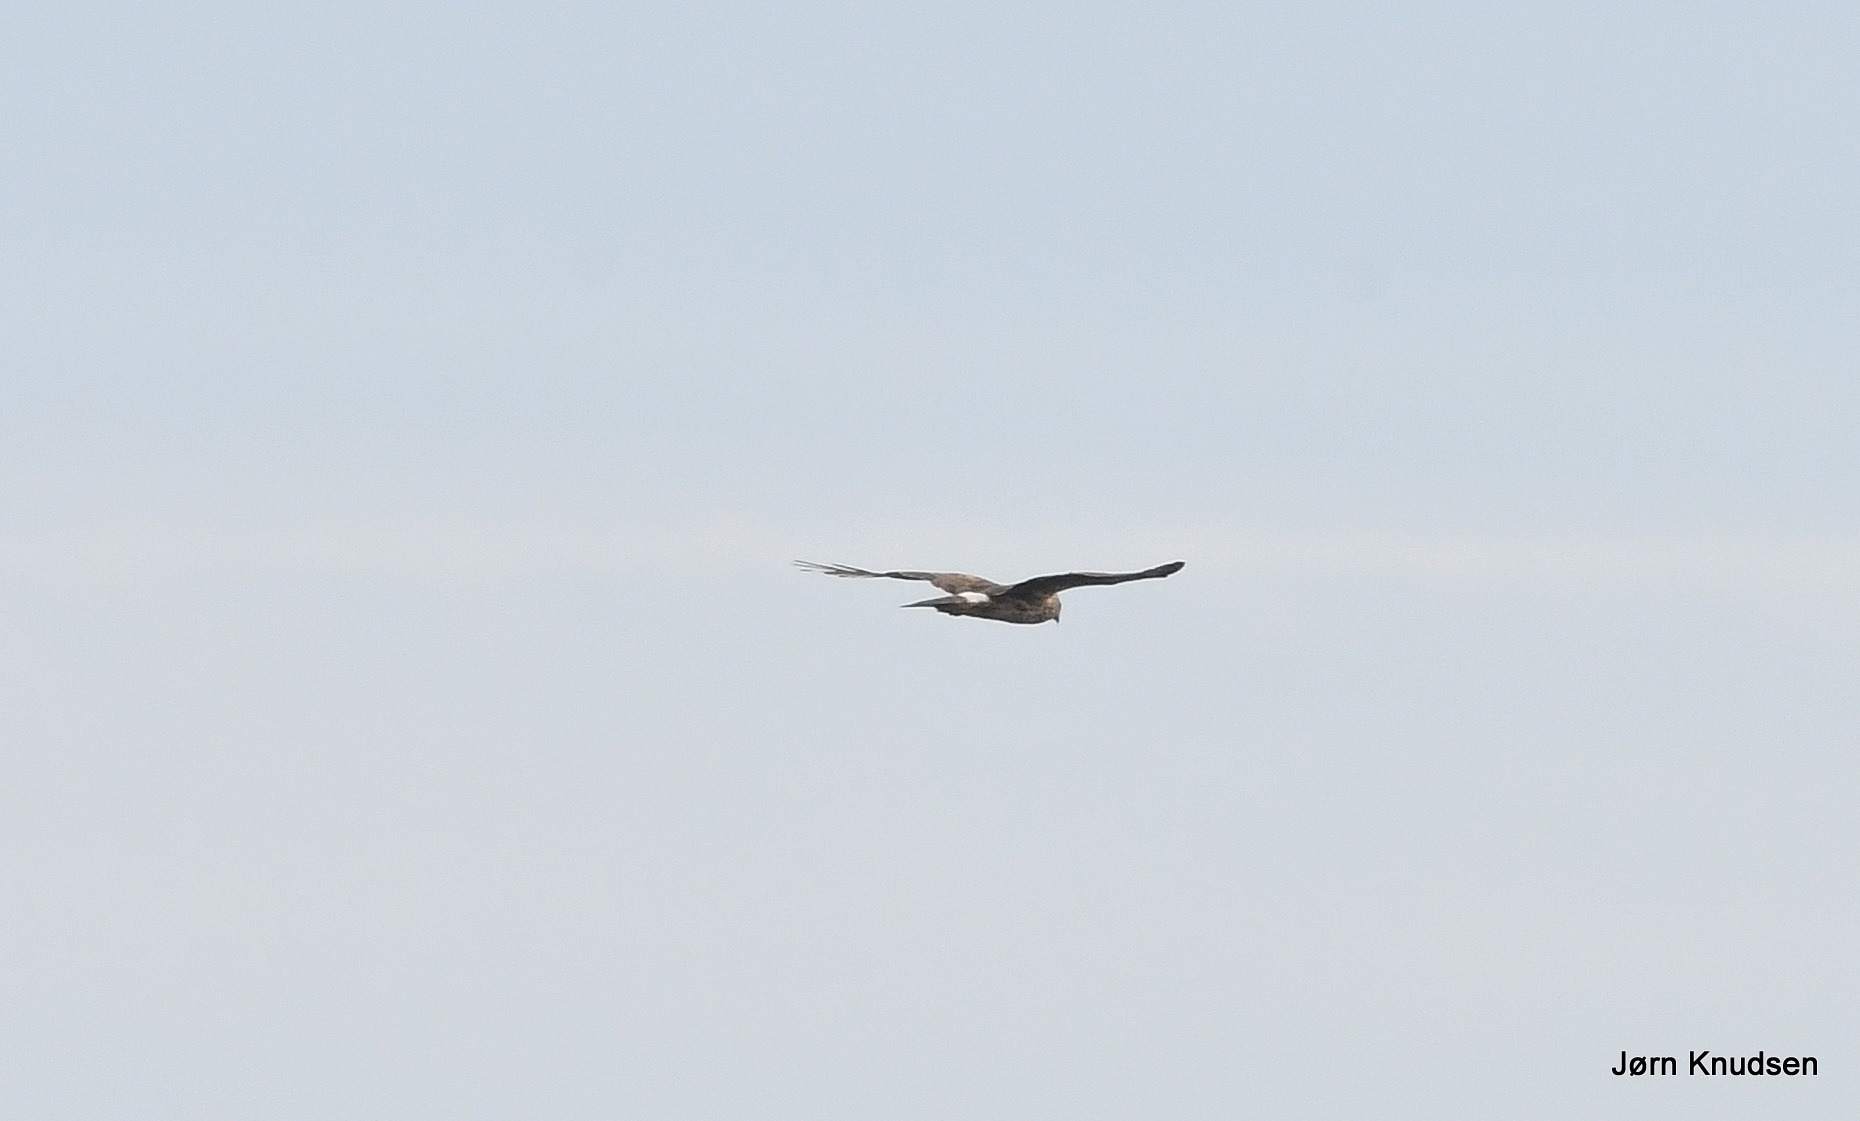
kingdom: Animalia
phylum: Chordata
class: Aves
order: Accipitriformes
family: Accipitridae
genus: Circus
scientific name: Circus cyaneus
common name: Blå kærhøg
